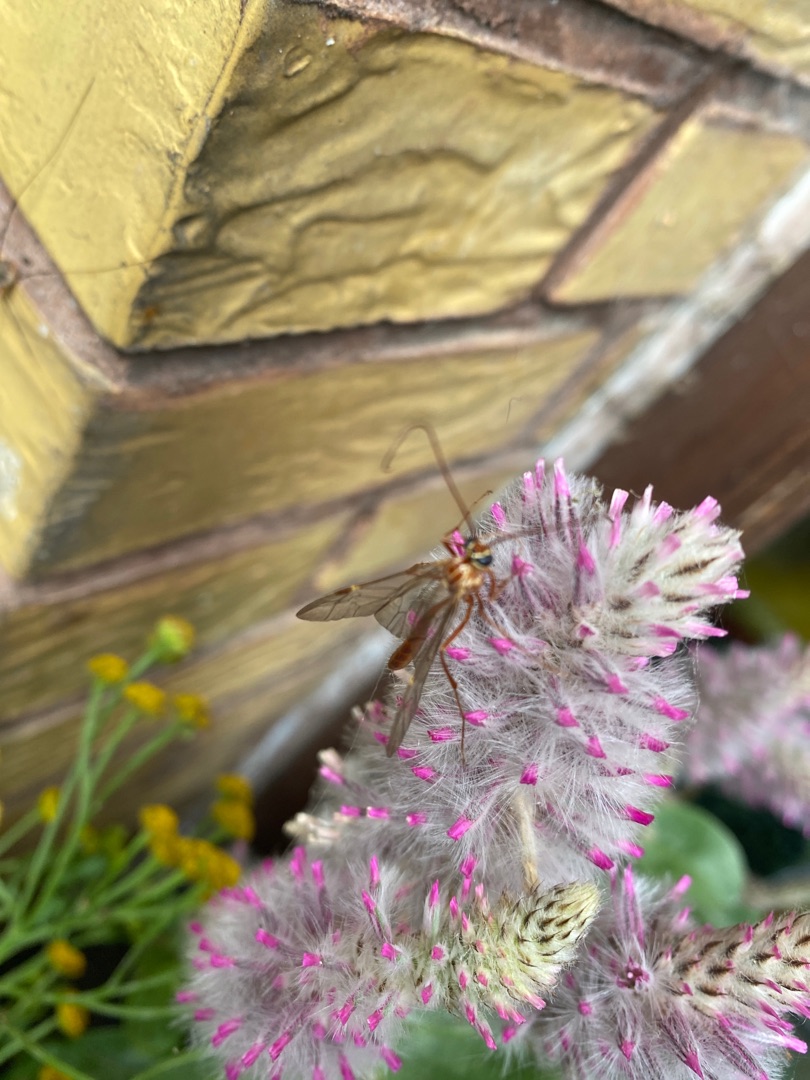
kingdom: Animalia
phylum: Arthropoda
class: Insecta
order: Hymenoptera
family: Ichneumonidae
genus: Ophion
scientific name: Ophion obscuratus
